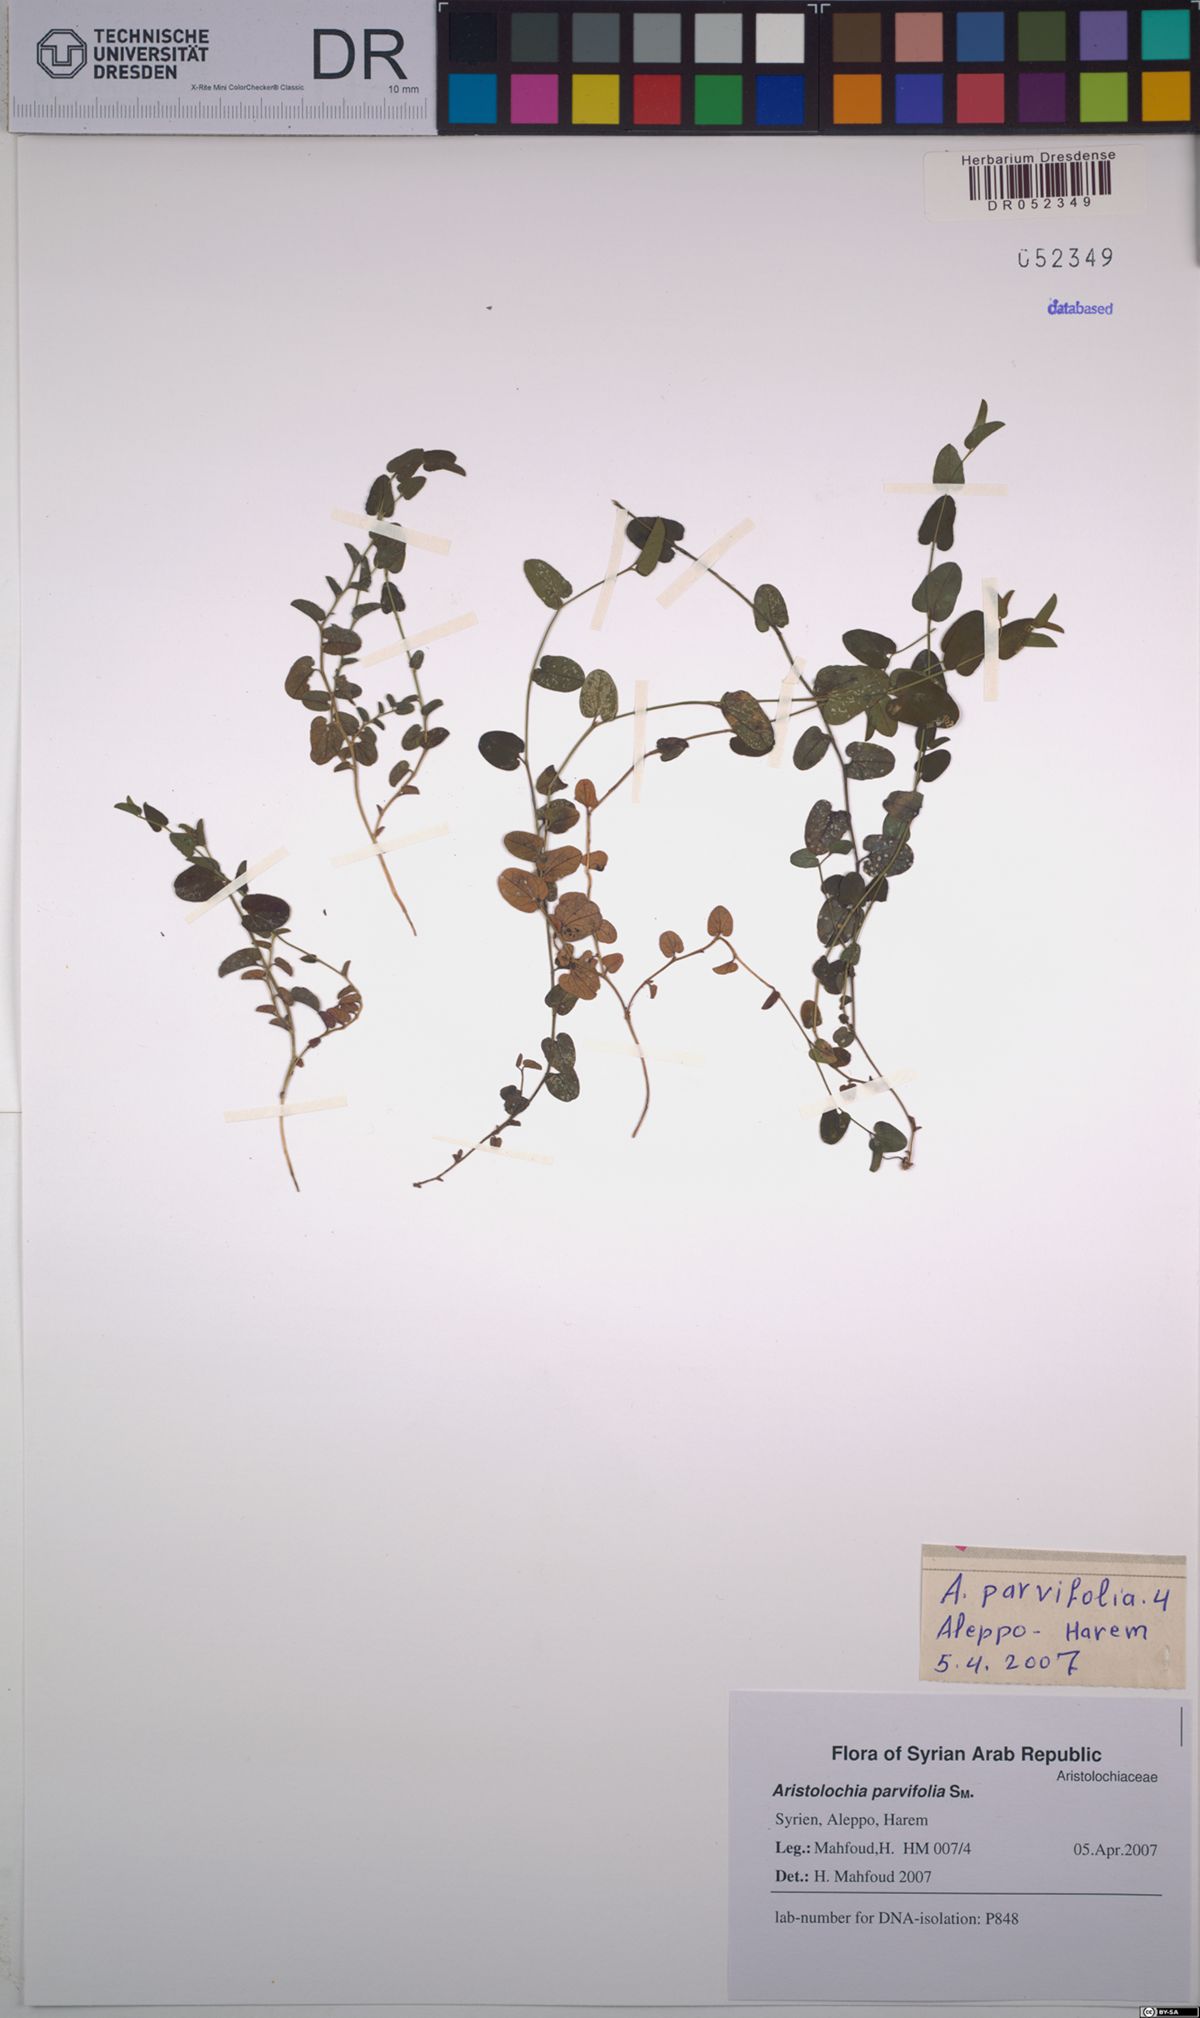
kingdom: Plantae
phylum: Tracheophyta
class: Magnoliopsida
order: Piperales
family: Aristolochiaceae
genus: Aristolochia
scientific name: Aristolochia parvifolia
